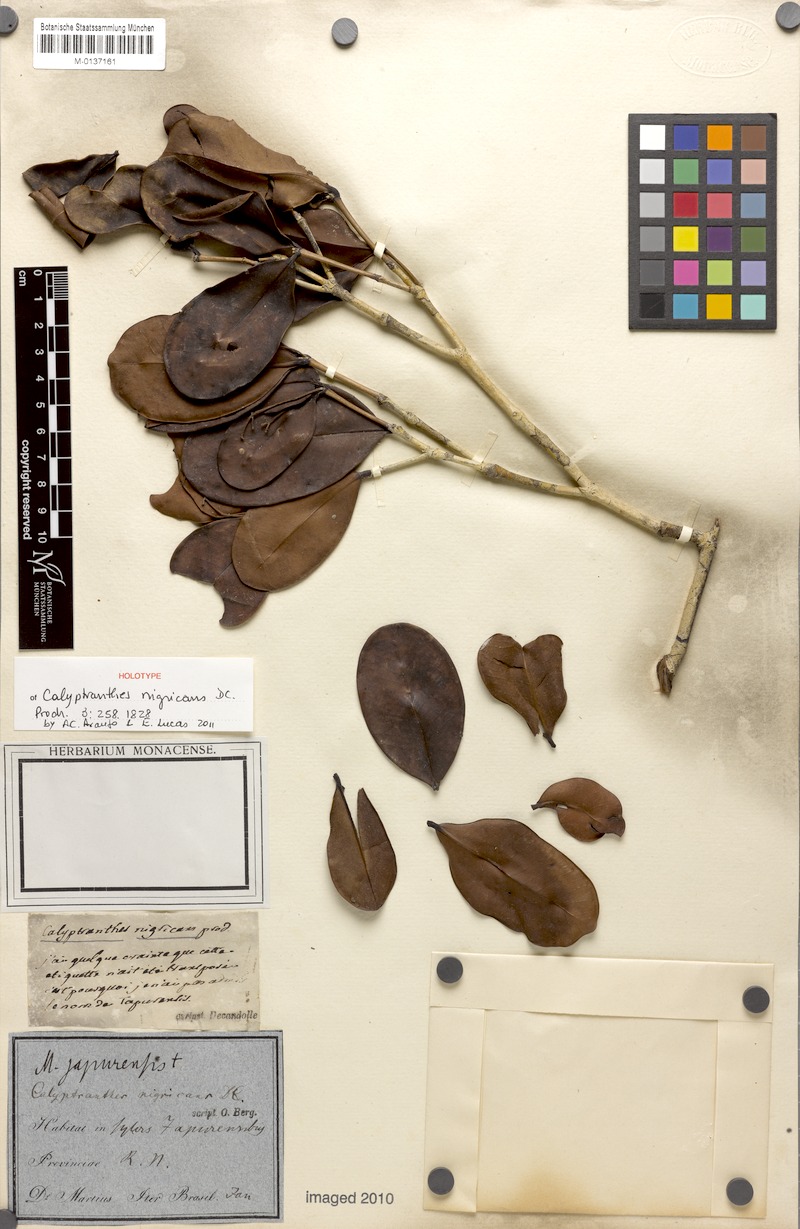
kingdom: Plantae
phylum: Tracheophyta
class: Magnoliopsida
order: Myrtales
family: Myrtaceae
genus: Myrcia
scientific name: Myrcia melanophylla
